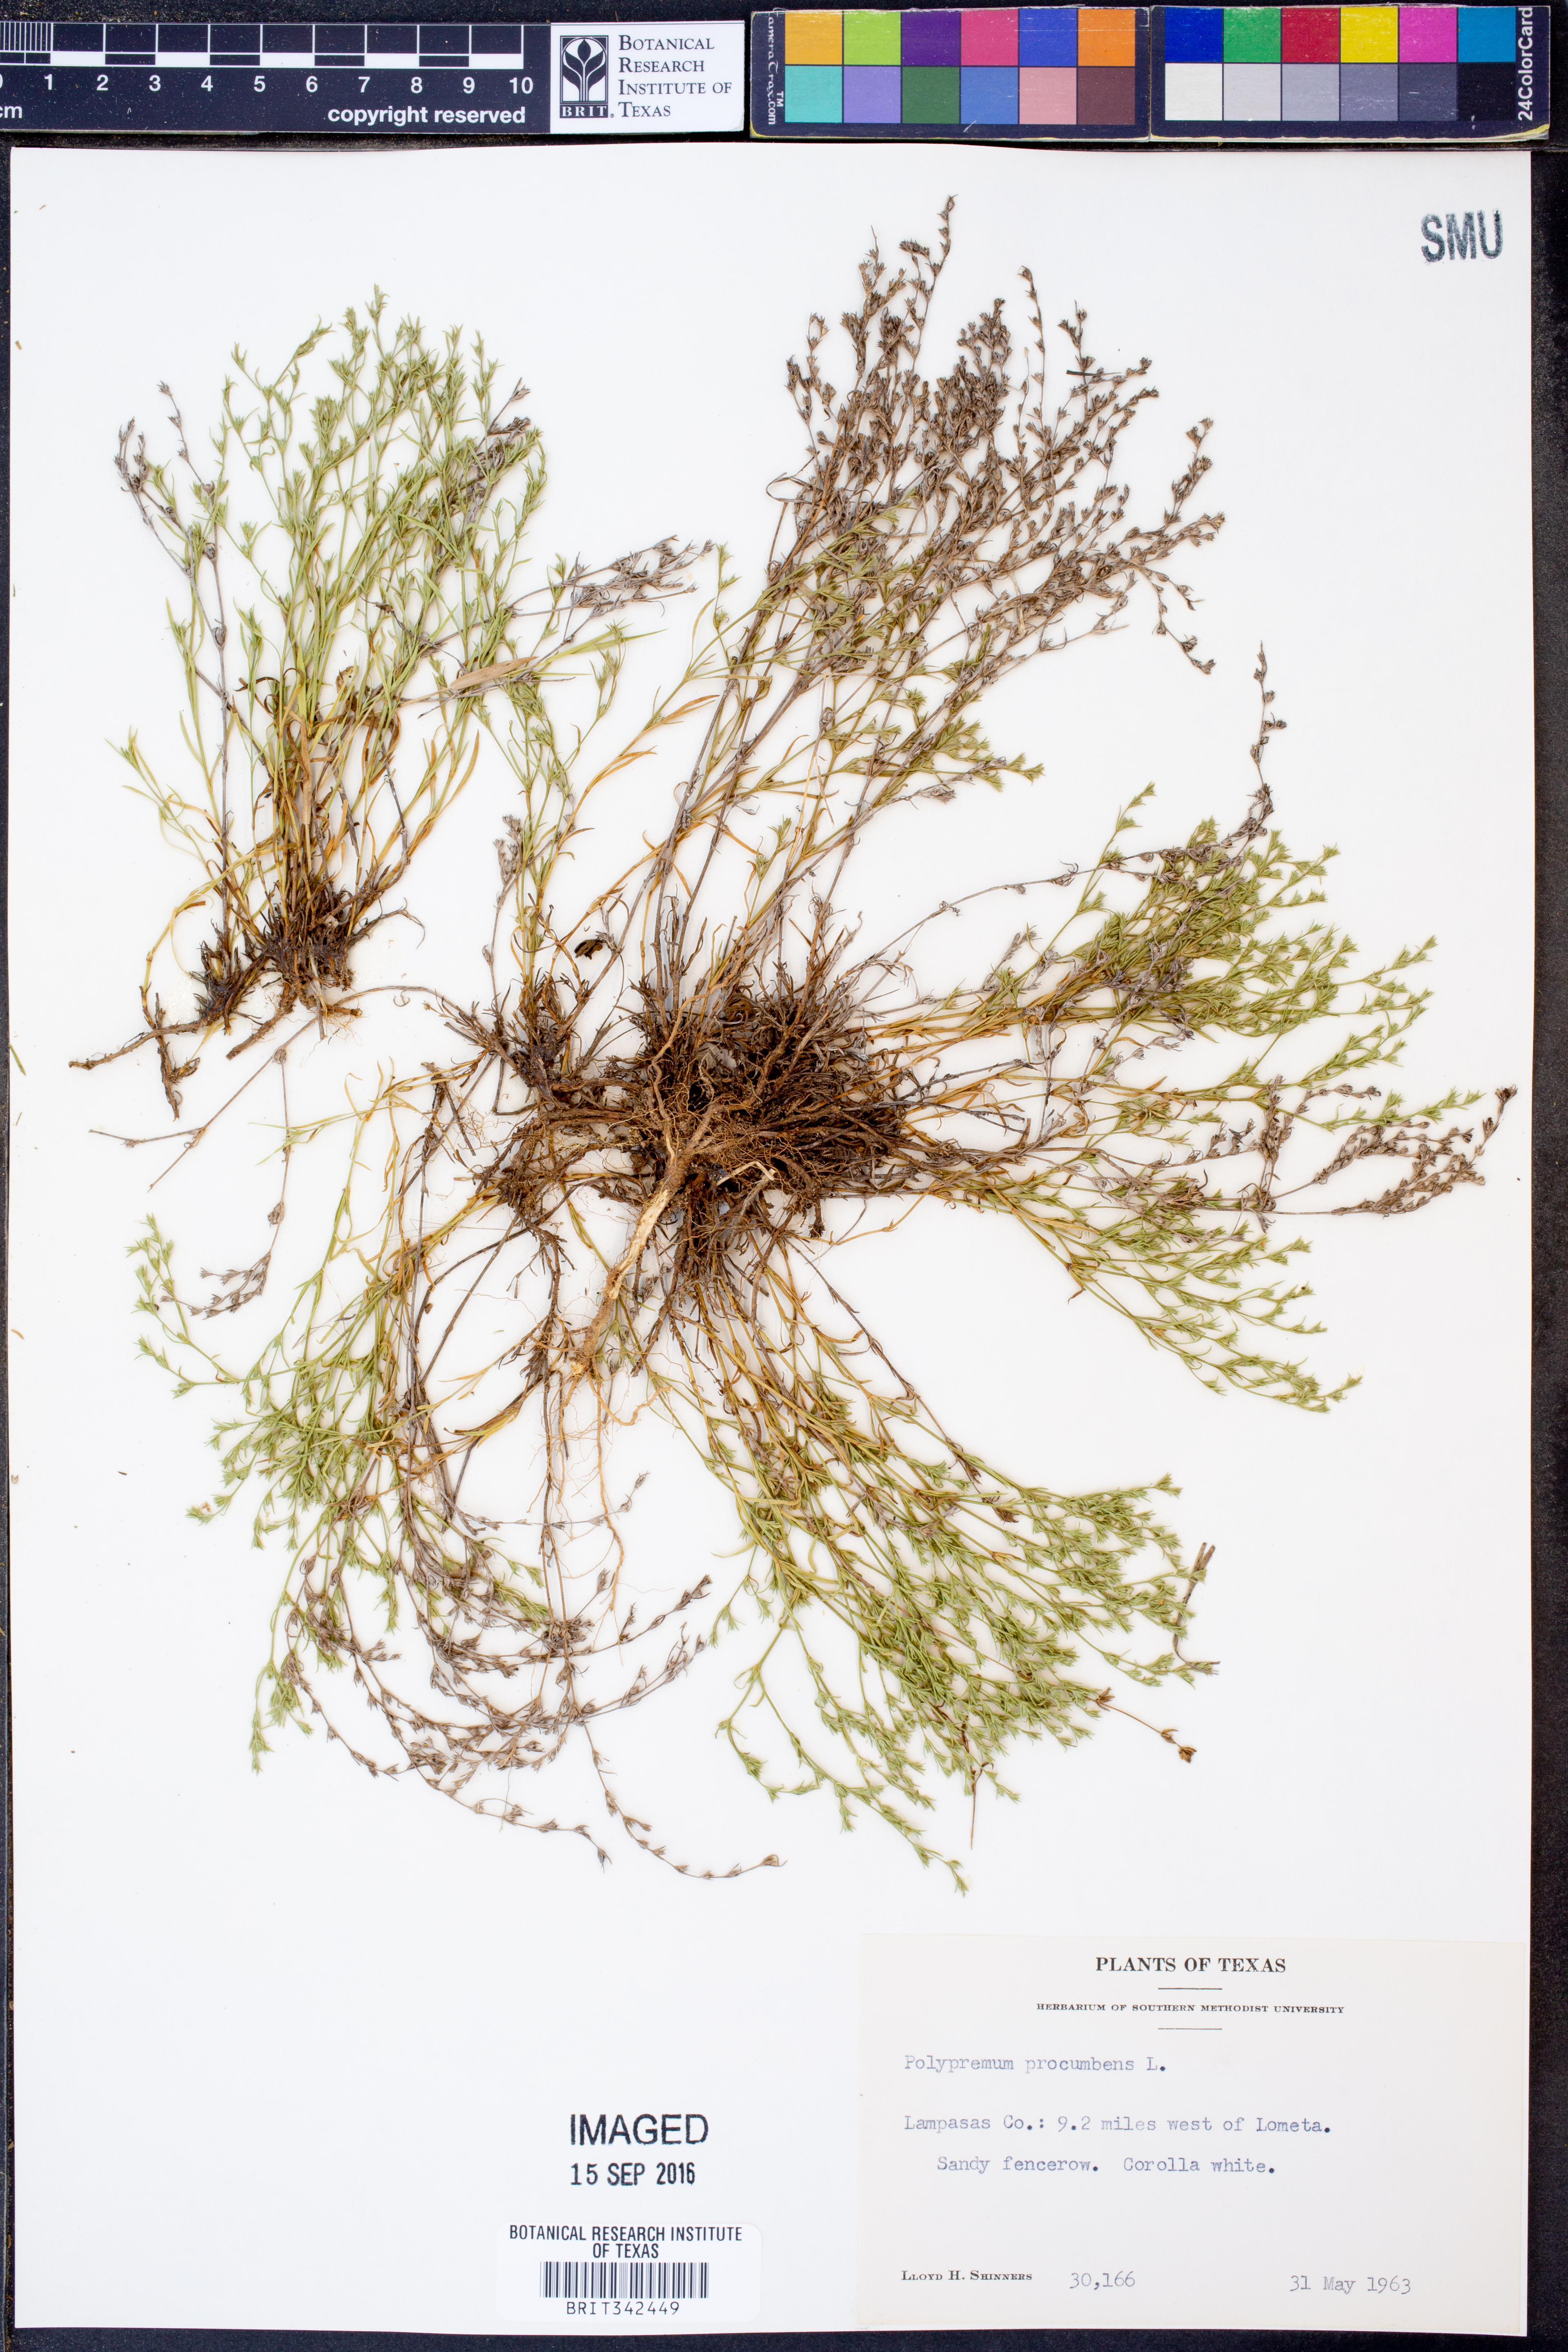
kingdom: Plantae
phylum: Tracheophyta
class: Magnoliopsida
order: Lamiales
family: Tetrachondraceae
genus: Polypremum
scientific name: Polypremum procumbens
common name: Juniper-leaf
